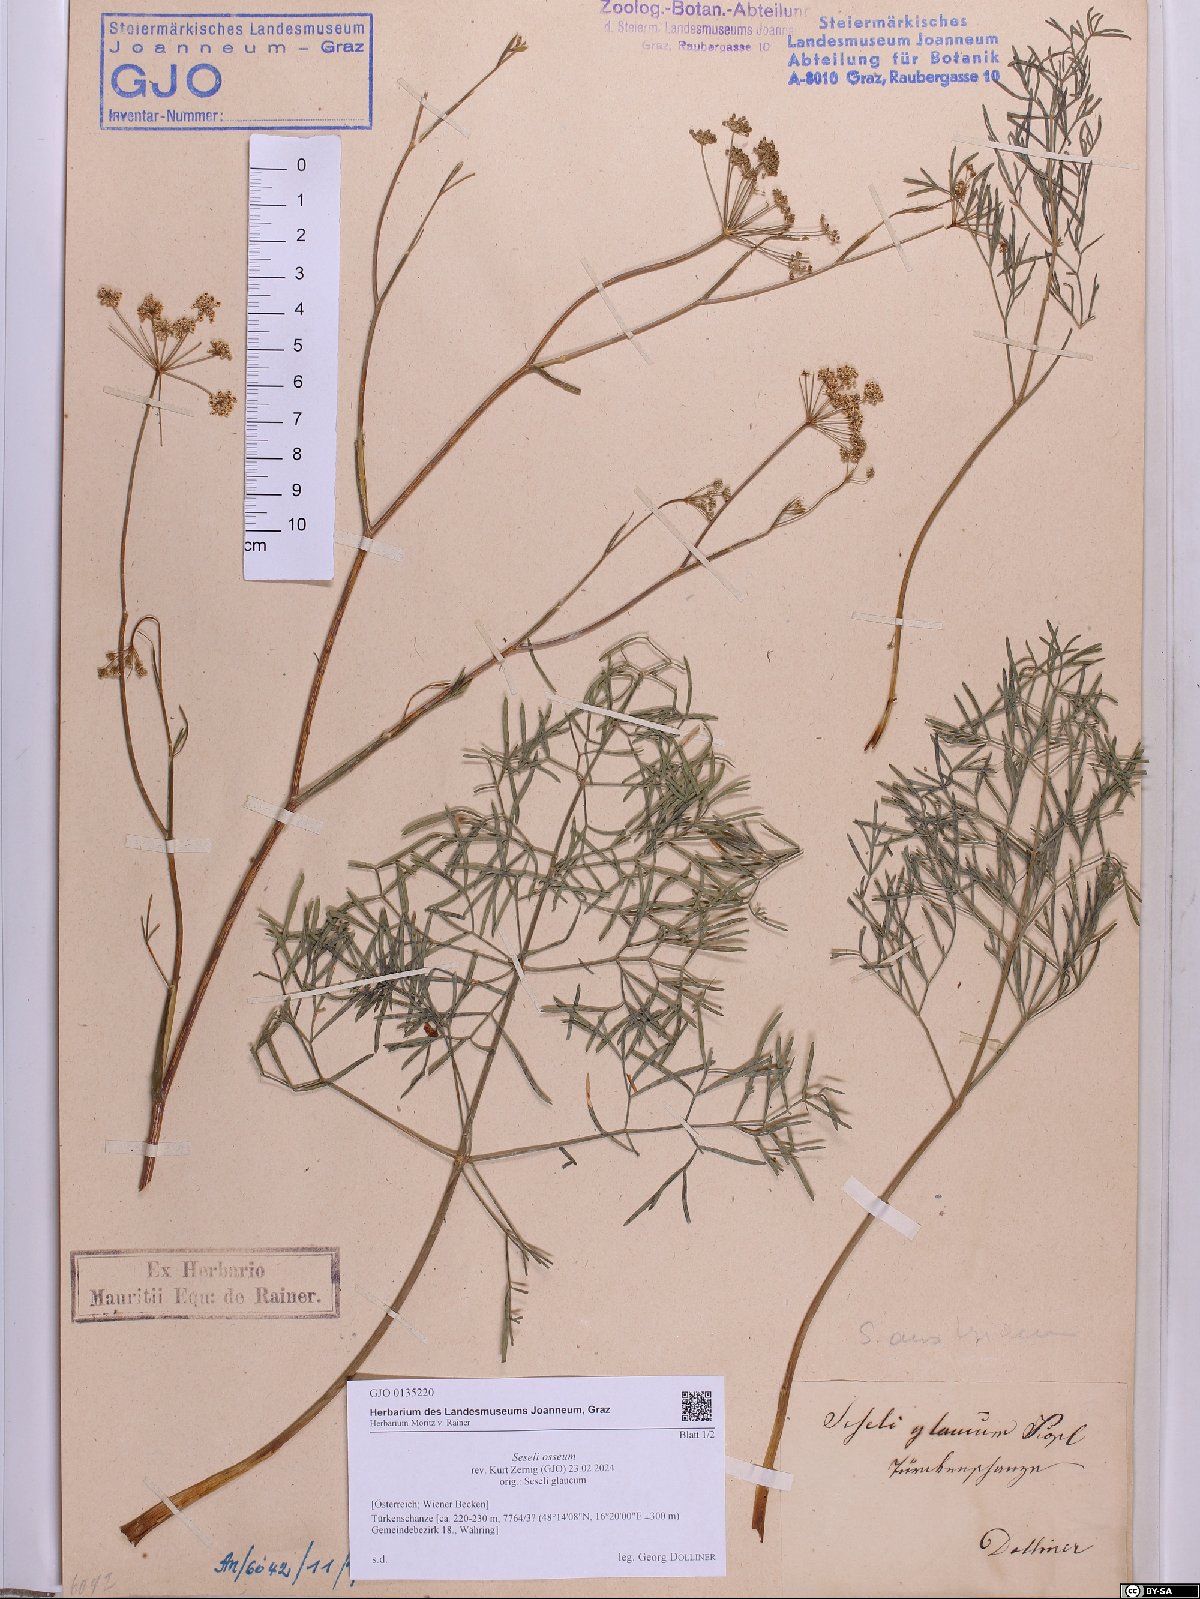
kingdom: Plantae
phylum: Tracheophyta
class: Magnoliopsida
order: Apiales
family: Apiaceae
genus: Seseli
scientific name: Seseli osseum
